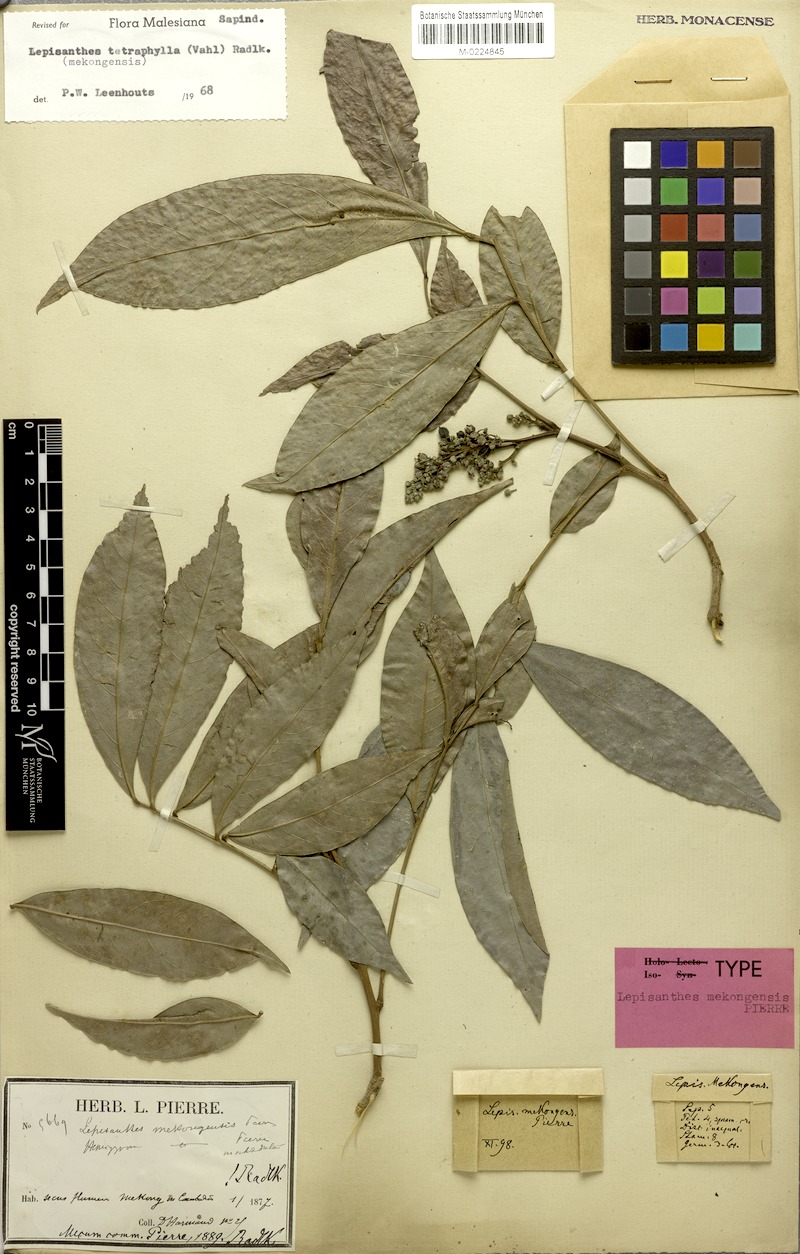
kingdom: Plantae
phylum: Tracheophyta
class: Magnoliopsida
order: Sapindales
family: Sapindaceae
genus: Lepisanthes
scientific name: Lepisanthes tetraphylla
